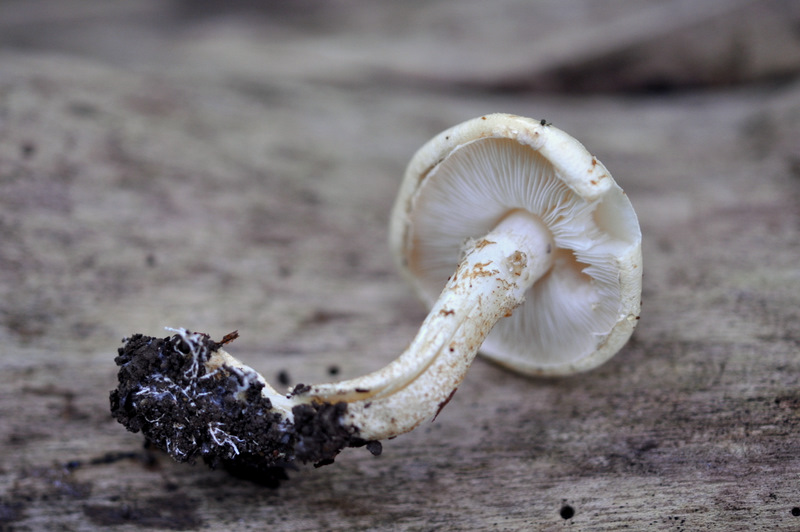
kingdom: Fungi
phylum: Basidiomycota
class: Agaricomycetes
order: Agaricales
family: Agaricaceae
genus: Chamaemyces
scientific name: Chamaemyces fracidus
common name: dråbehat
